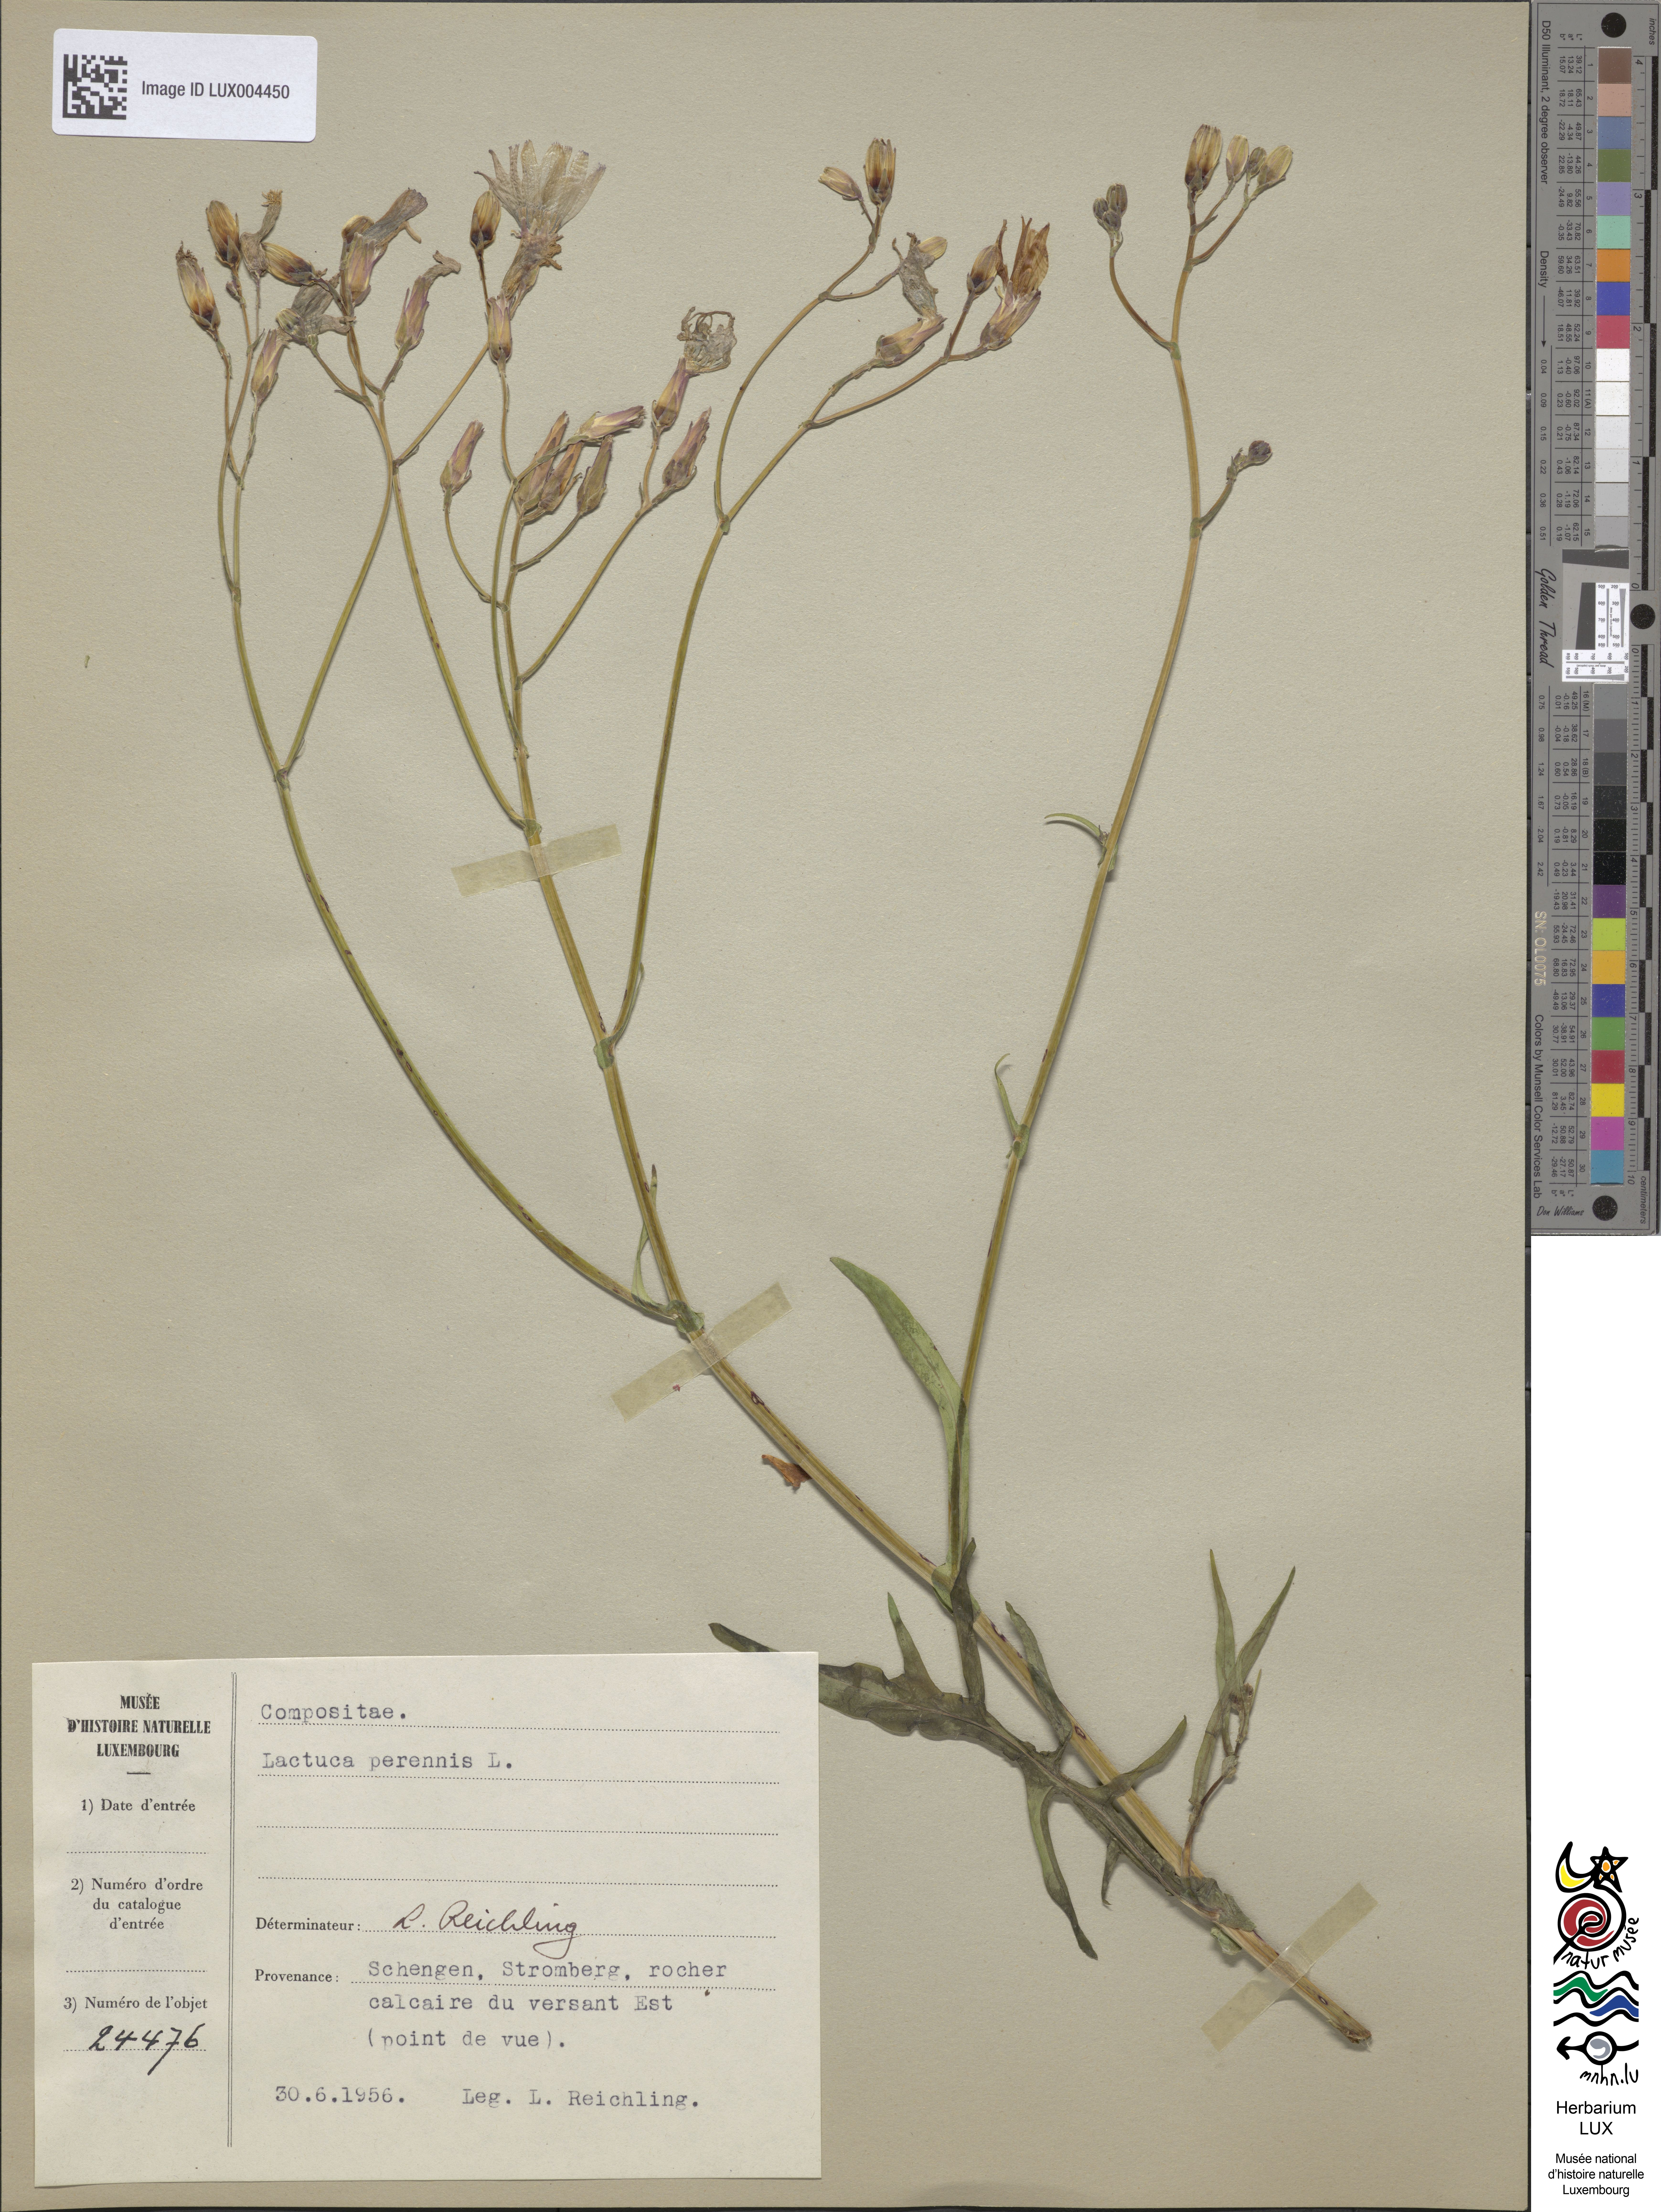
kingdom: Plantae
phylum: Tracheophyta
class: Magnoliopsida
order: Asterales
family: Asteraceae
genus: Lactuca
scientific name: Lactuca perennis
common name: Mountain lettuce
